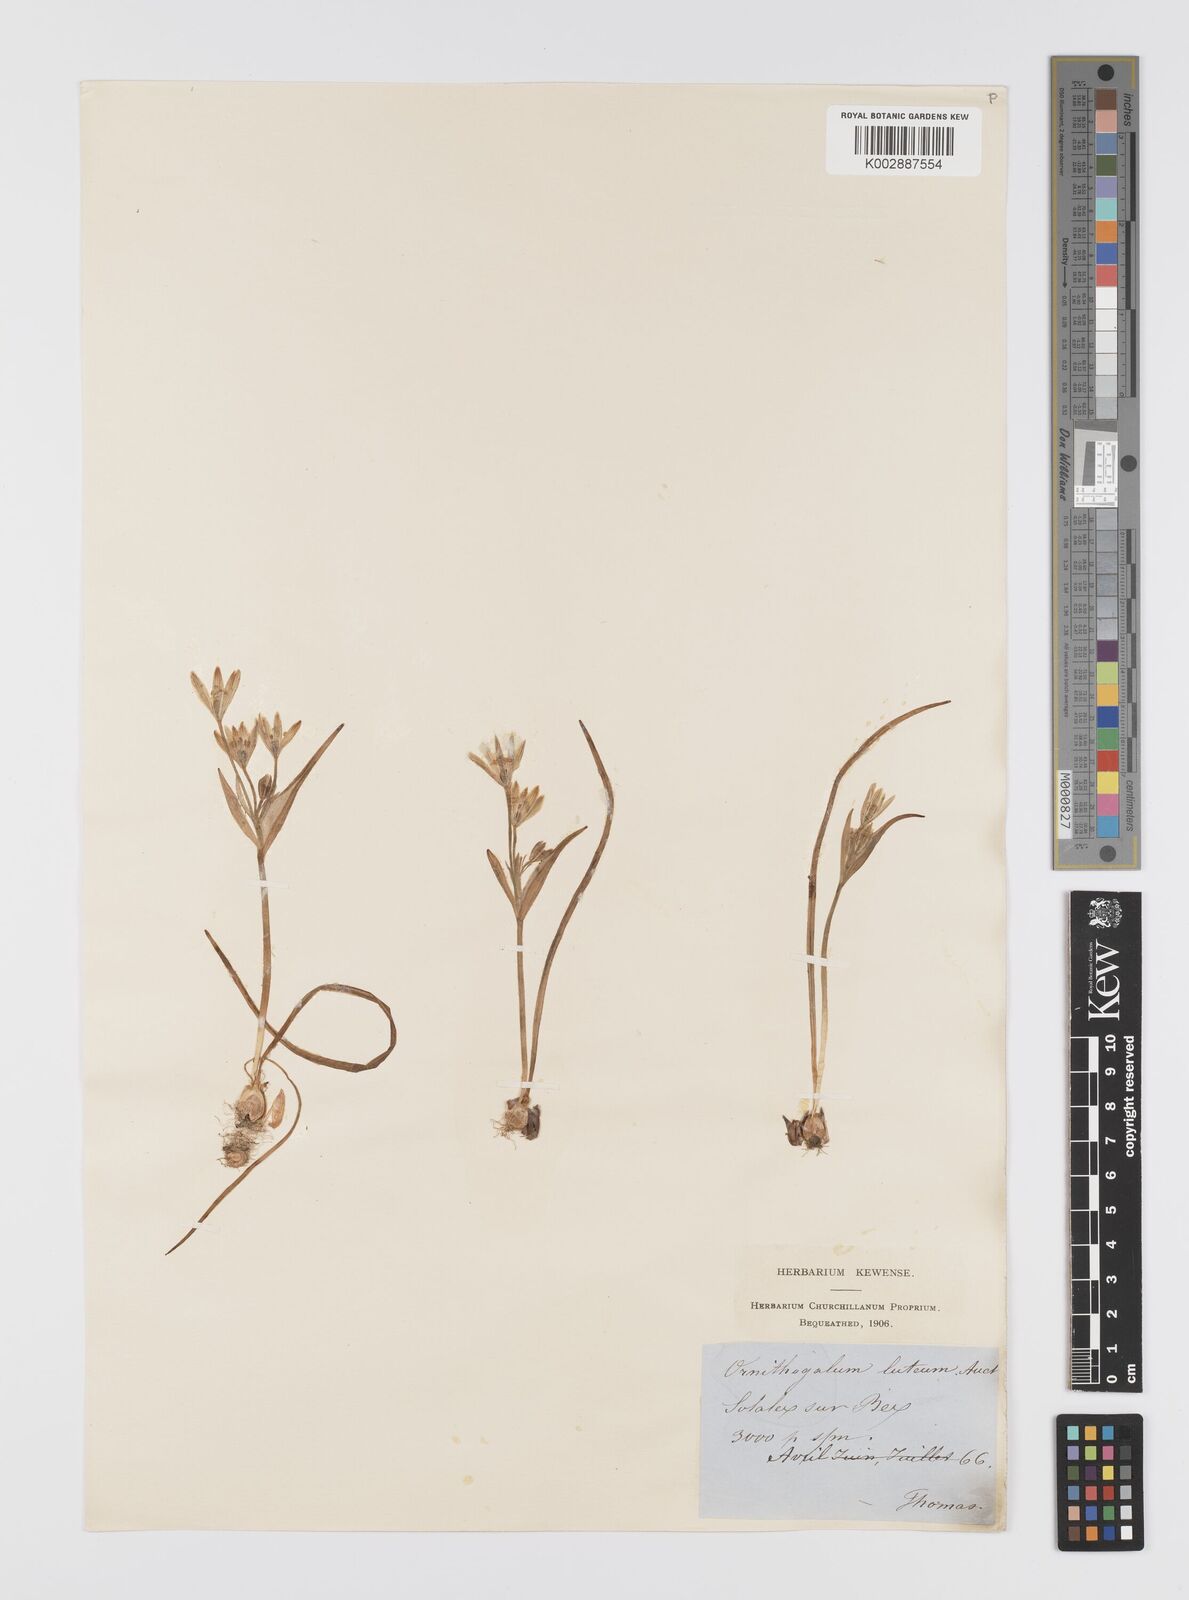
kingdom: Plantae
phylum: Tracheophyta
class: Liliopsida
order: Liliales
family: Liliaceae
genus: Gagea
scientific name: Gagea lutea
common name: Yellow star-of-bethlehem
